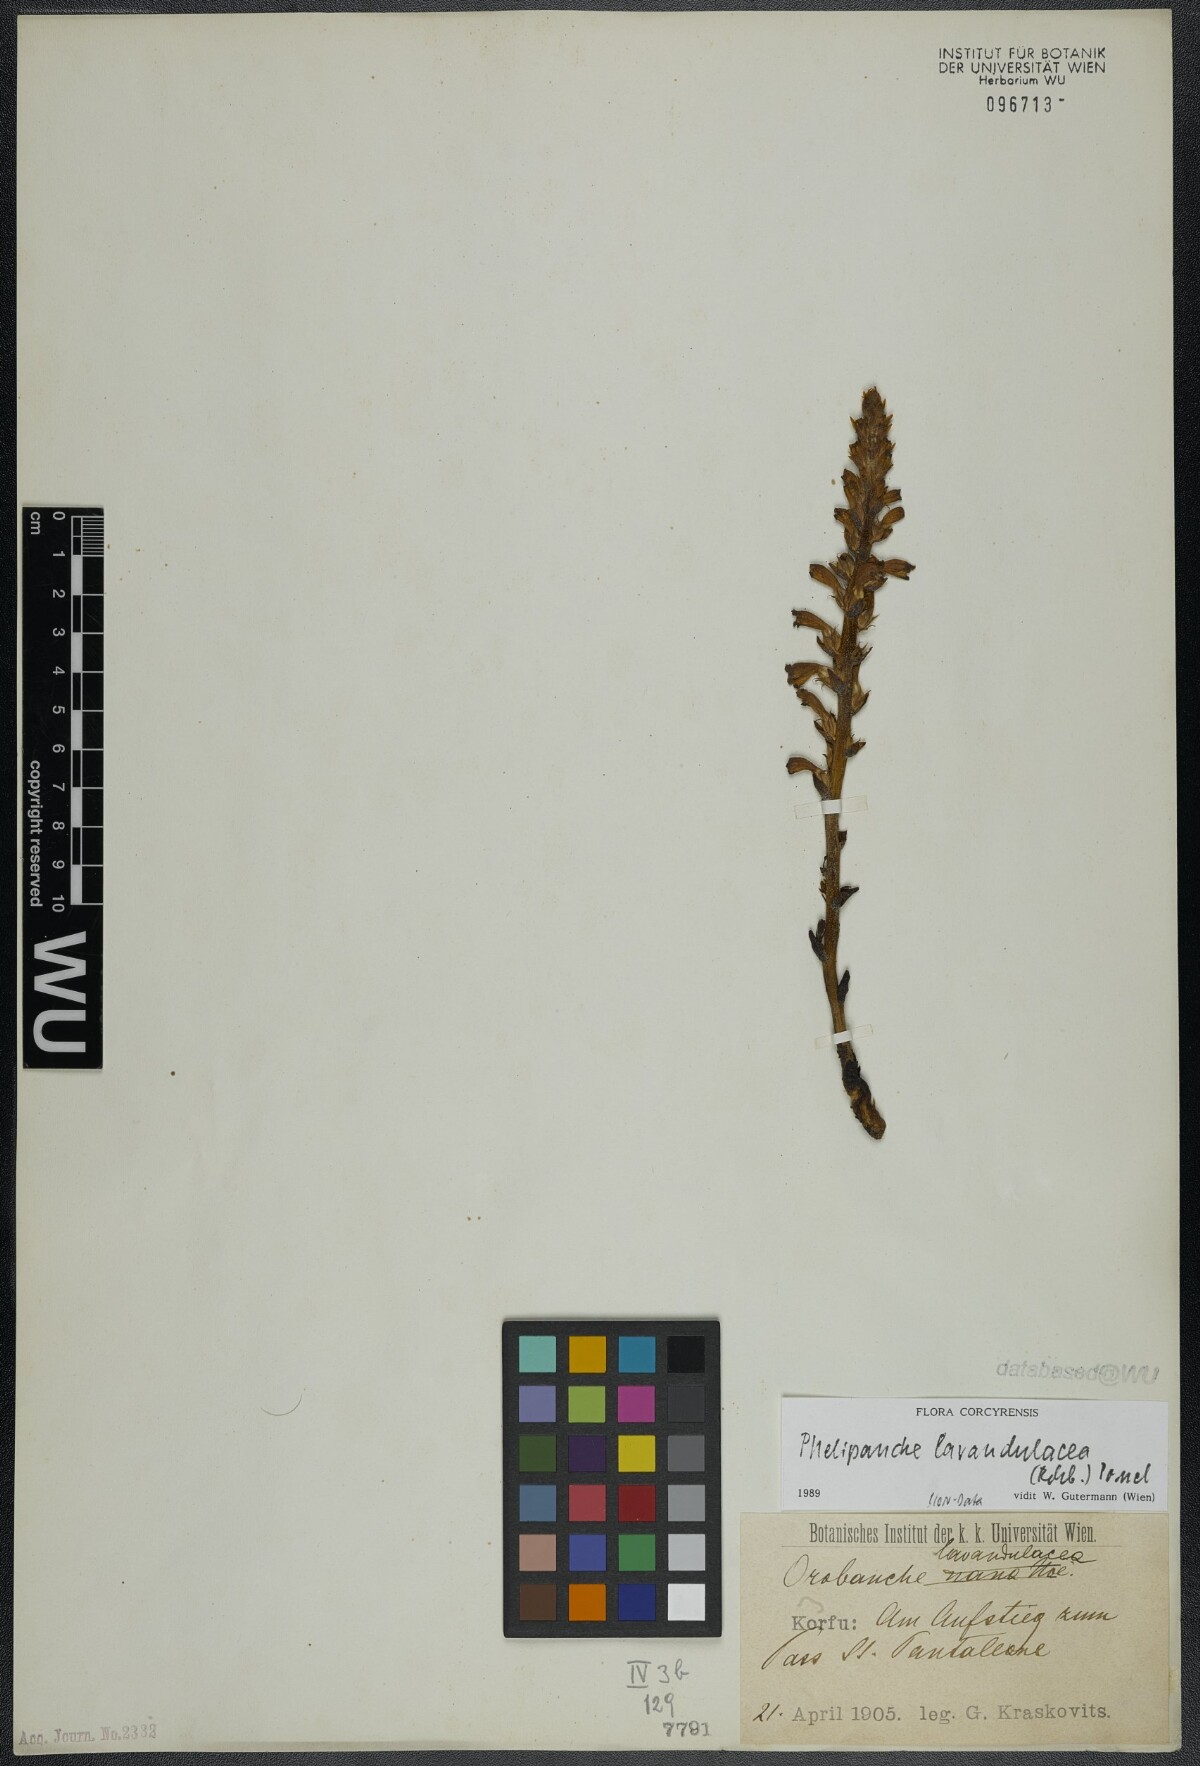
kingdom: Plantae
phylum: Tracheophyta
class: Magnoliopsida
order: Lamiales
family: Orobanchaceae
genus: Phelipanche
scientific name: Phelipanche lavandulacea
